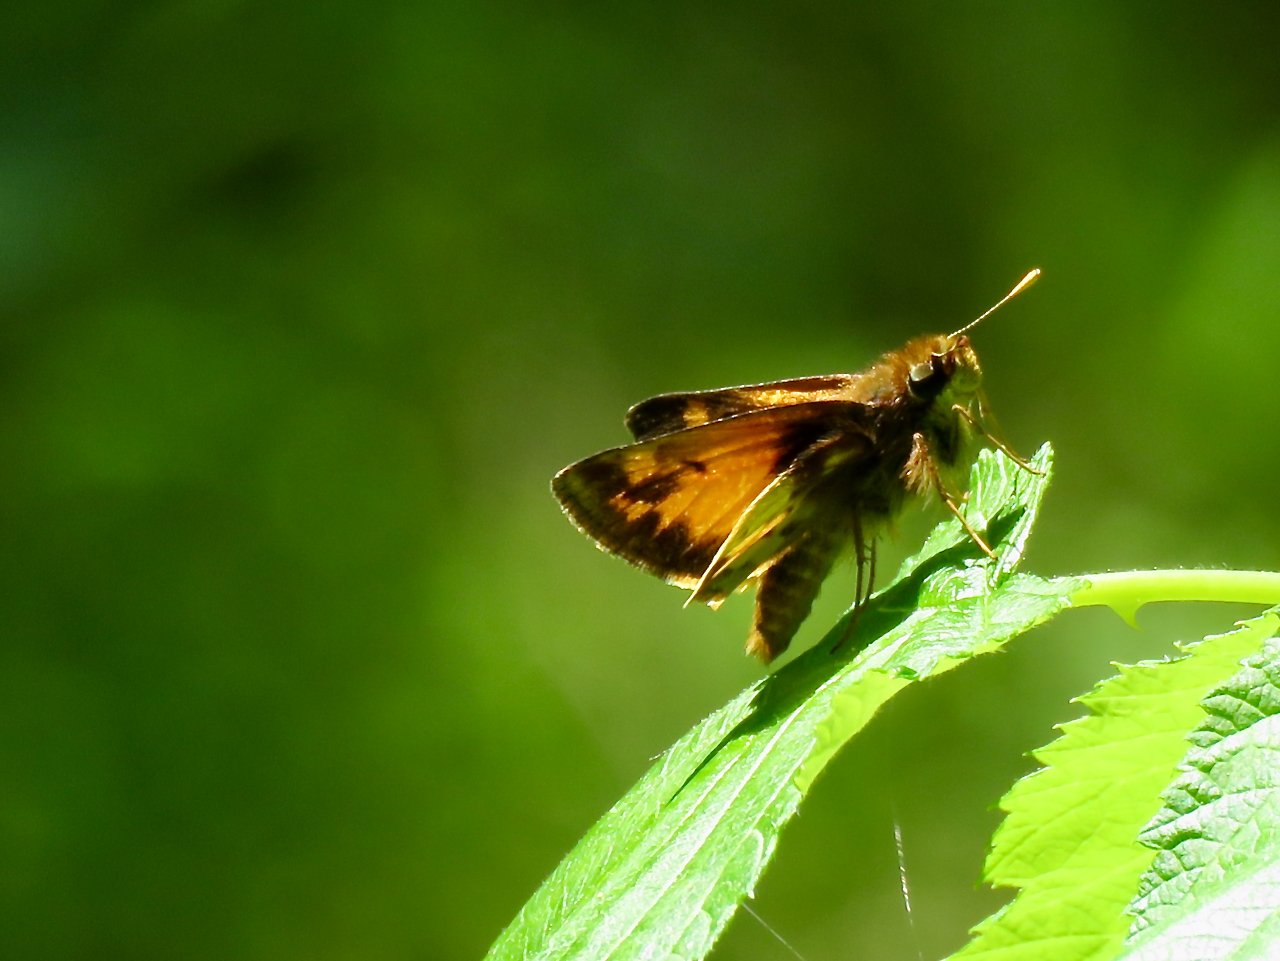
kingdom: Animalia
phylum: Arthropoda
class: Insecta
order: Lepidoptera
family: Hesperiidae
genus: Lon
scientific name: Lon zabulon
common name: Zabulon Skipper
